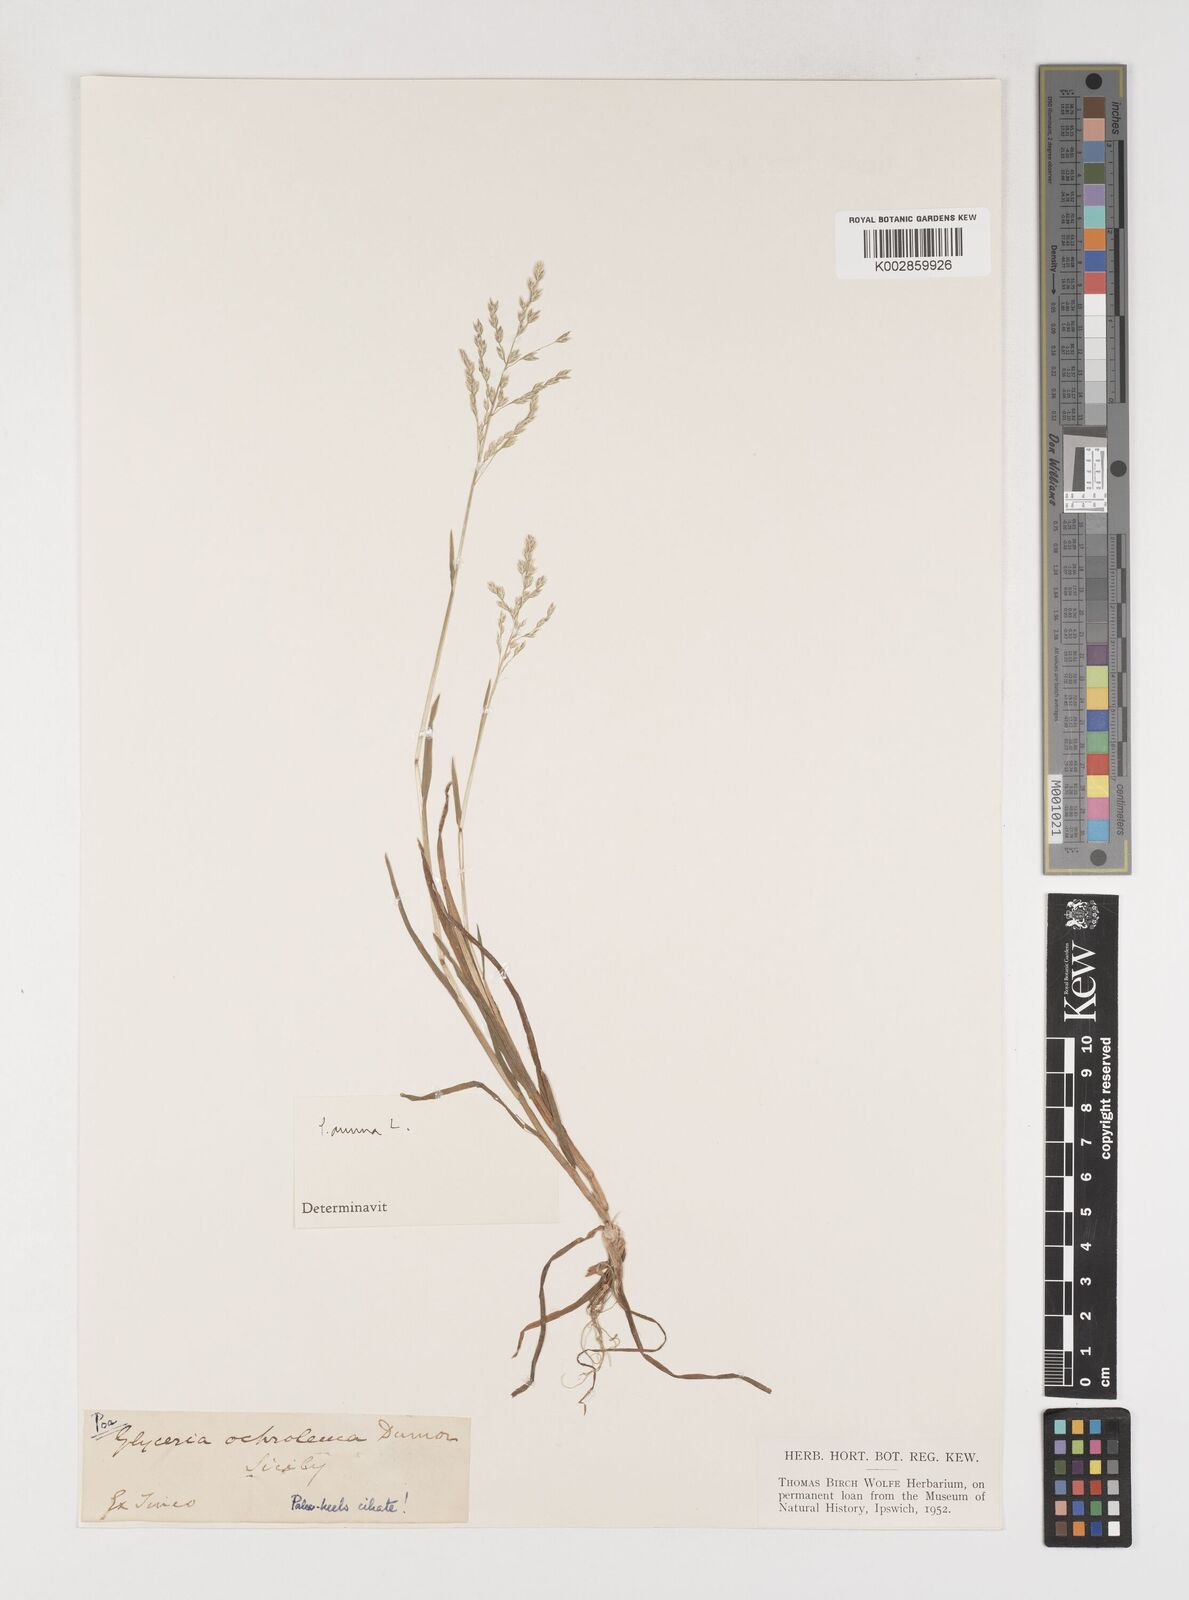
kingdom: Plantae
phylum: Tracheophyta
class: Liliopsida
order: Poales
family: Poaceae
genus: Poa
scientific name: Poa annua
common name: Annual bluegrass
